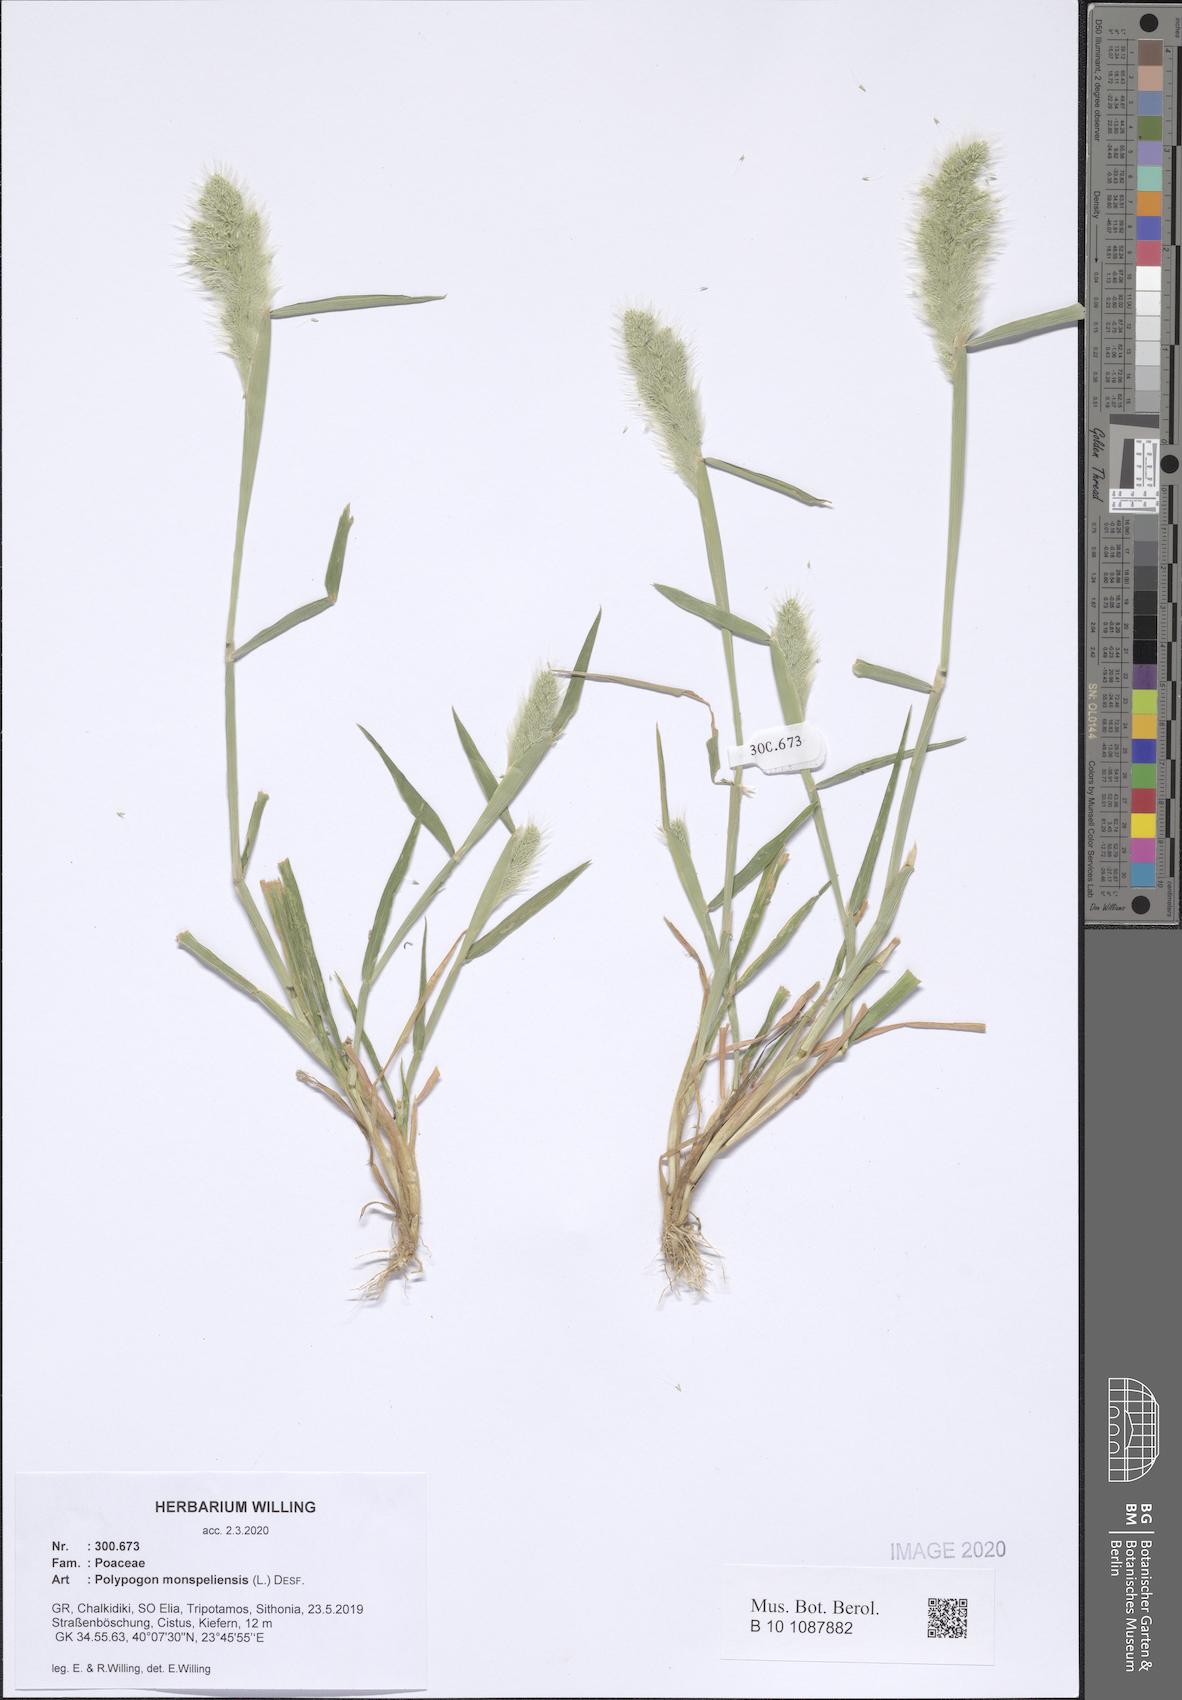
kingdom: Plantae
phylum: Tracheophyta
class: Liliopsida
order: Poales
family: Poaceae
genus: Polypogon
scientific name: Polypogon monspeliensis
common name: Annual rabbitsfoot grass
